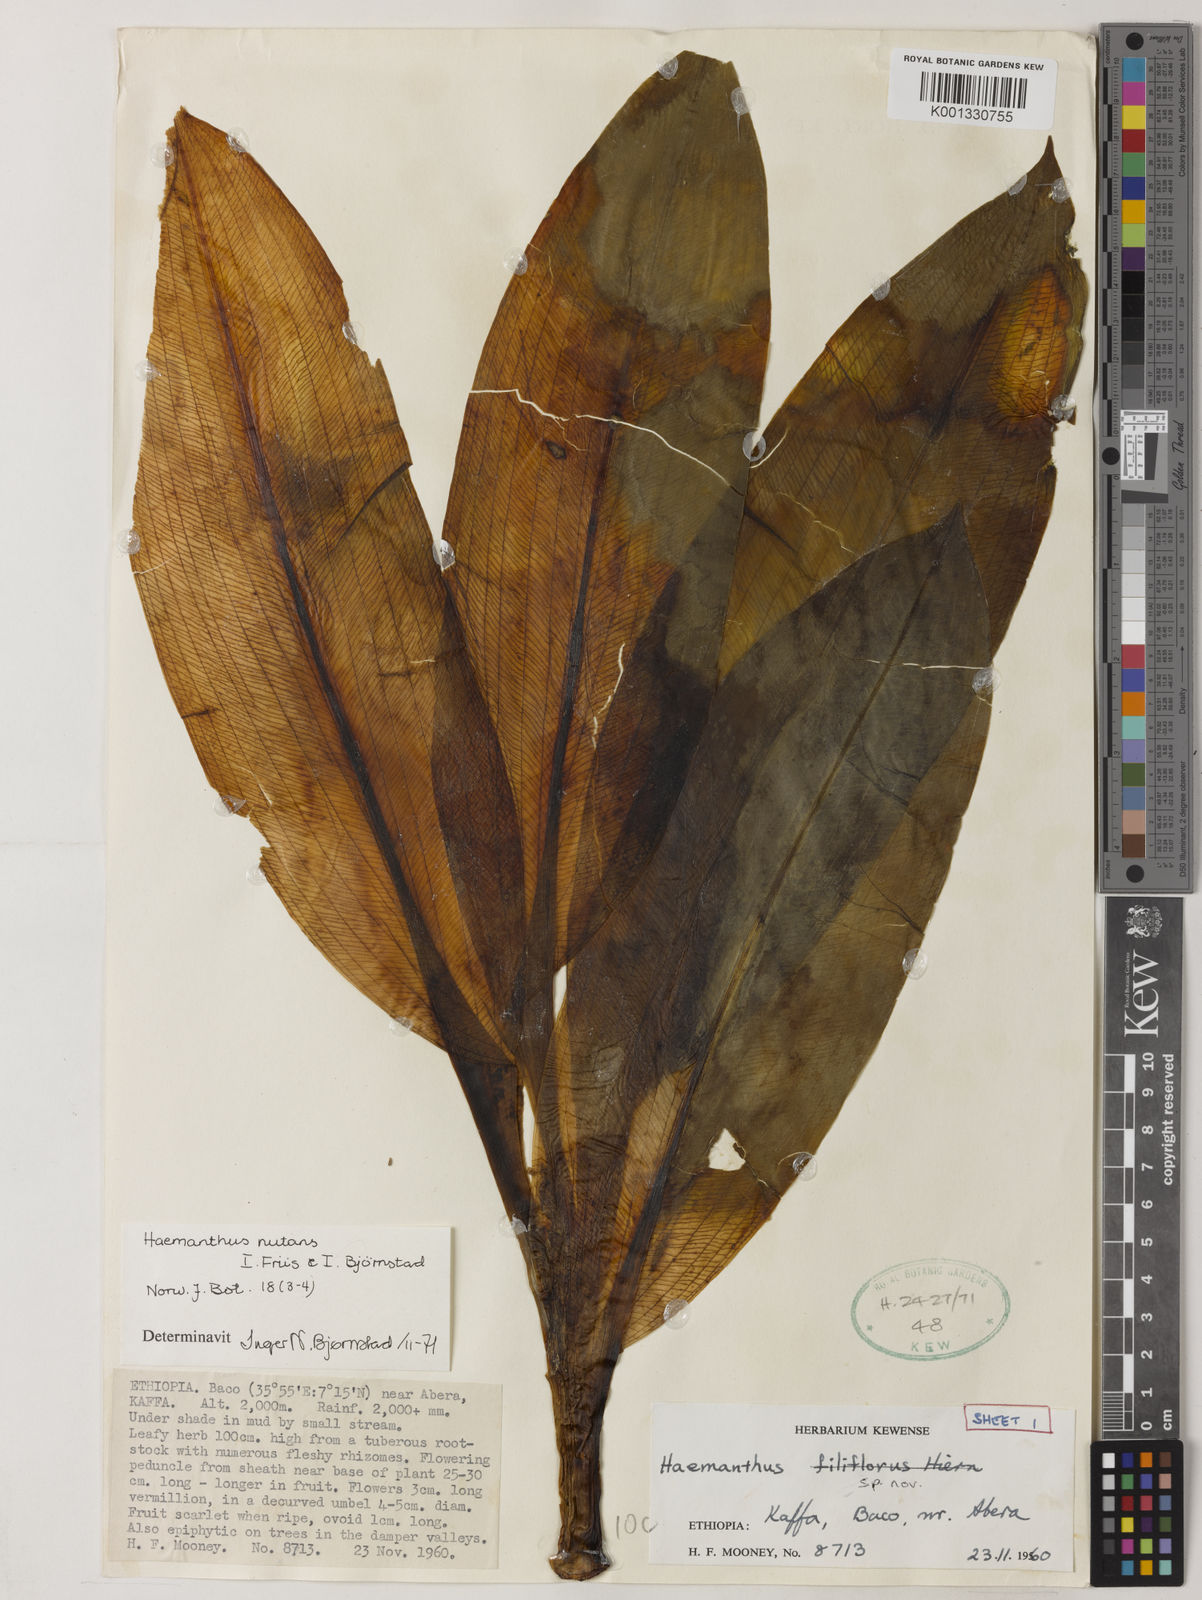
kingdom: Plantae
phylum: Tracheophyta
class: Liliopsida
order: Asparagales
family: Amaryllidaceae
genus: Scadoxus
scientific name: Scadoxus nutans
